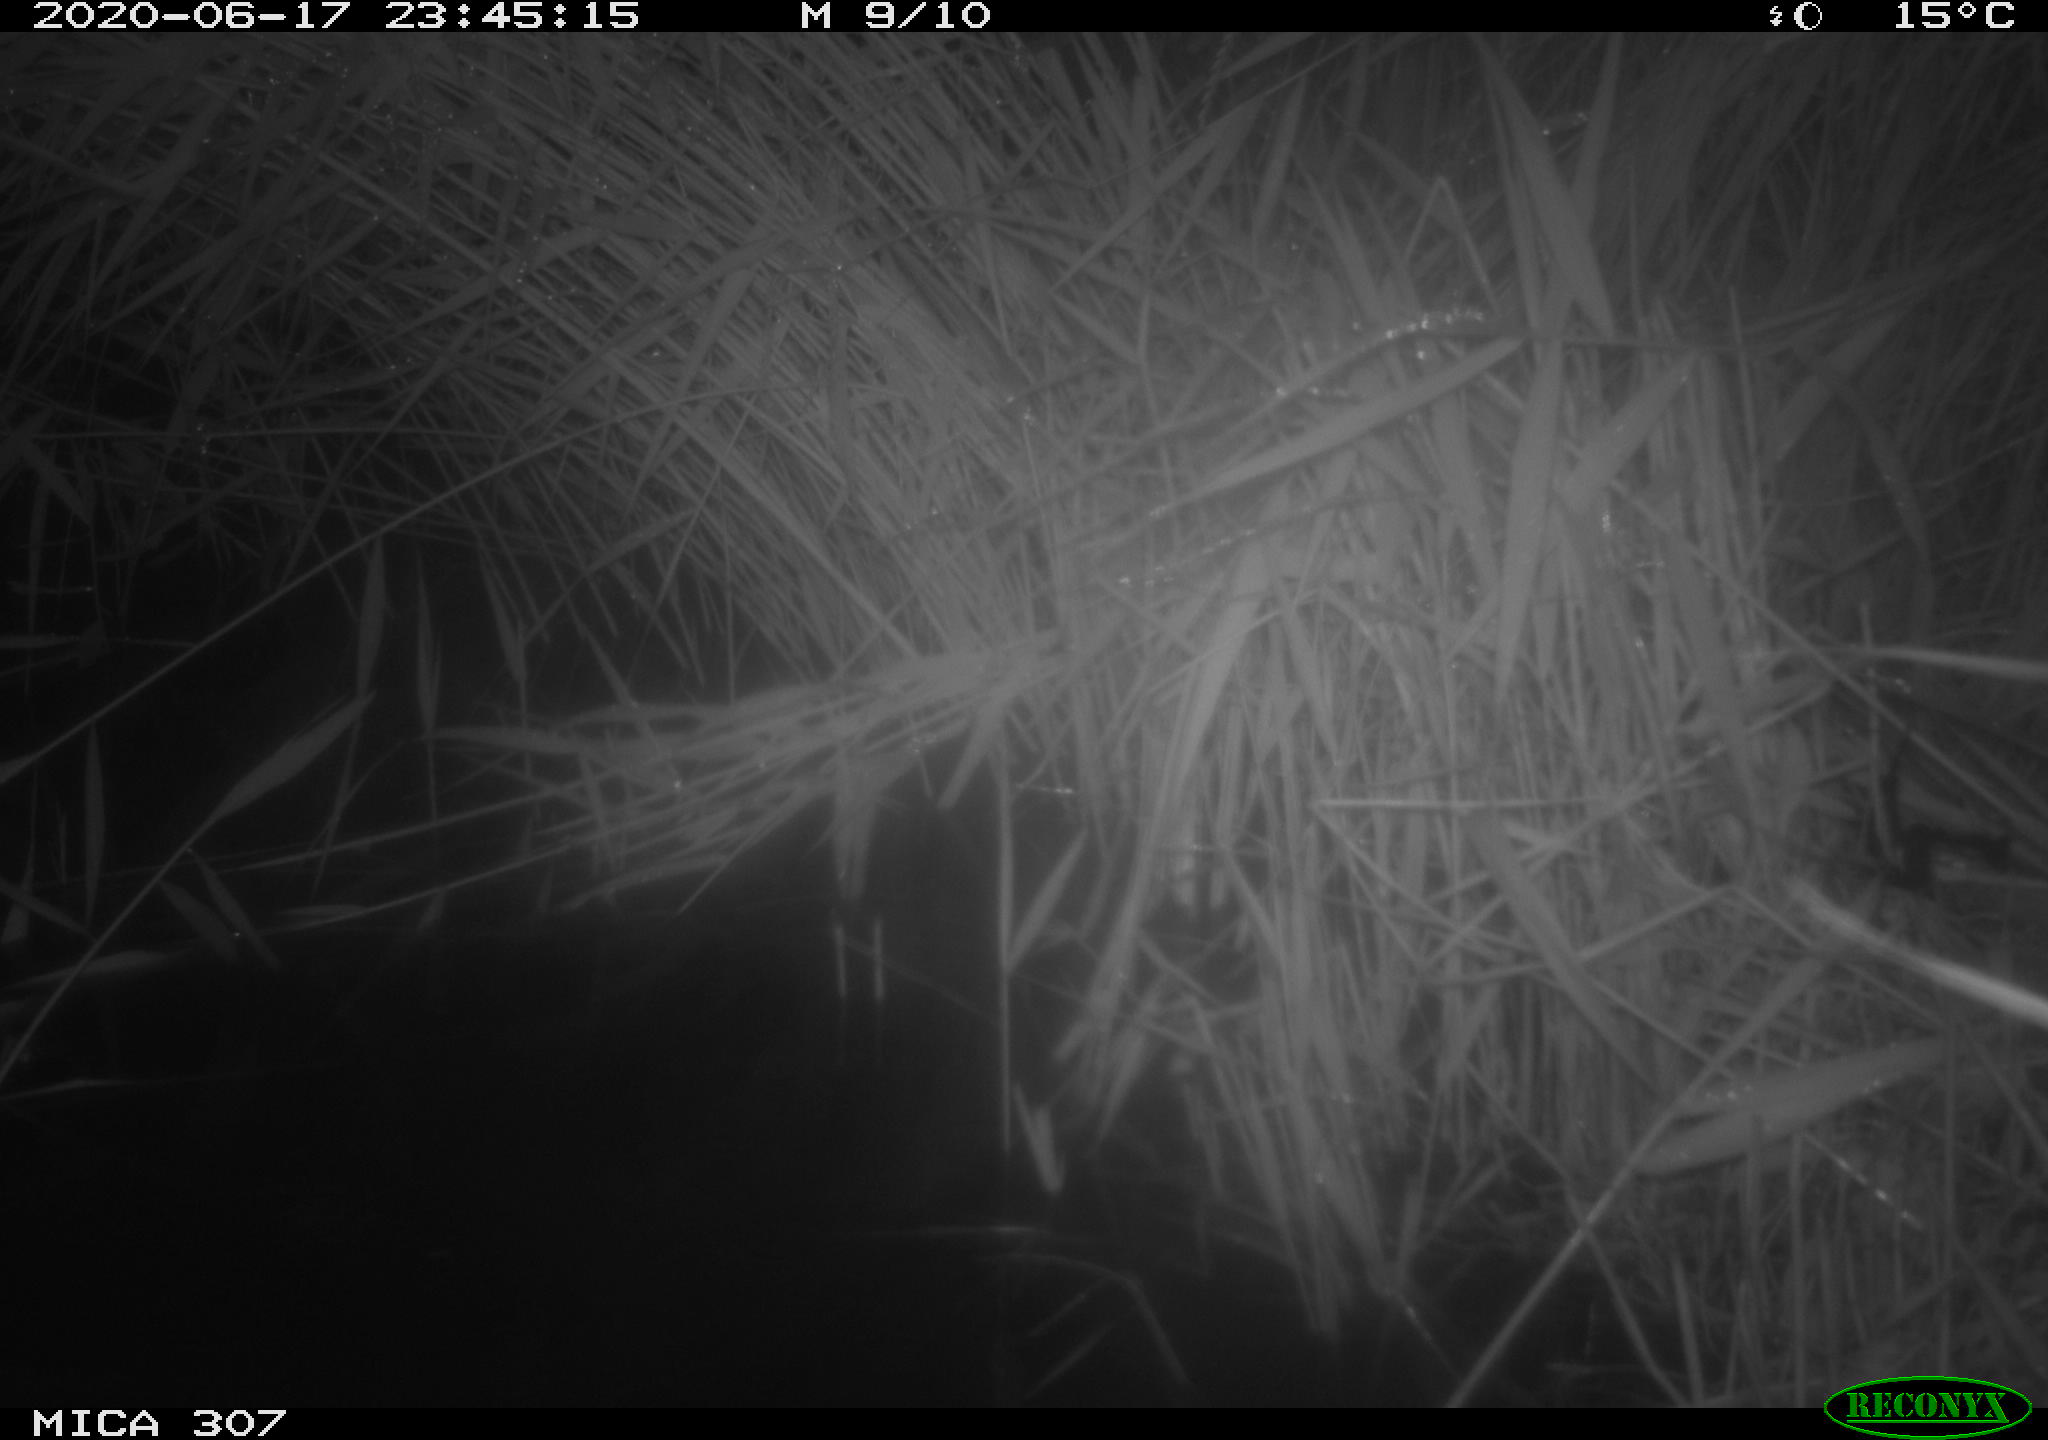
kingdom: Animalia
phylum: Chordata
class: Mammalia
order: Rodentia
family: Muridae
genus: Rattus
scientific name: Rattus norvegicus
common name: Brown rat
